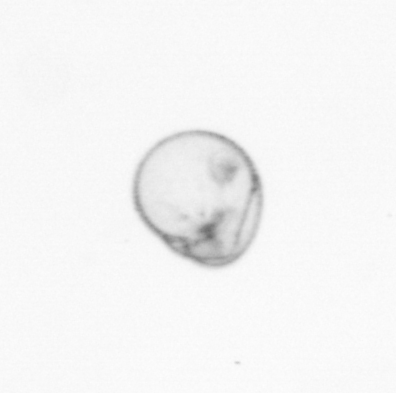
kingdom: Chromista
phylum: Myzozoa
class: Dinophyceae
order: Noctilucales
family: Noctilucaceae
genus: Noctiluca
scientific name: Noctiluca scintillans
